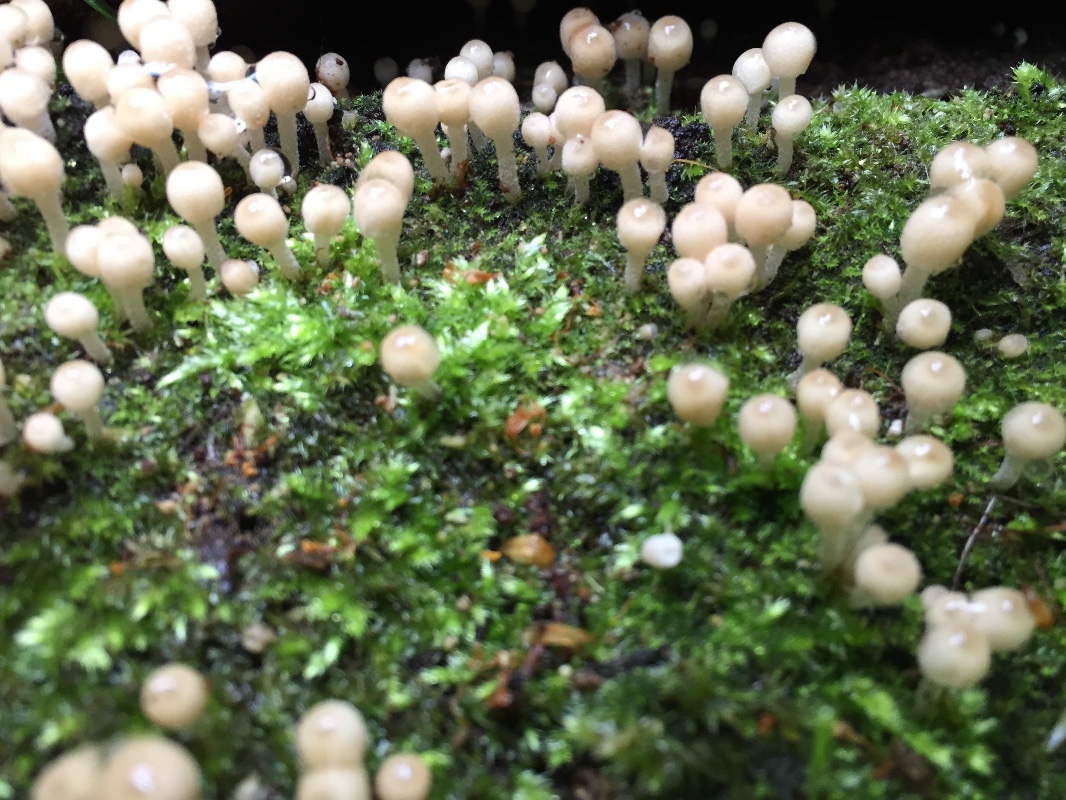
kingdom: Fungi
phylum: Basidiomycota
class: Agaricomycetes
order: Agaricales
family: Psathyrellaceae
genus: Coprinellus
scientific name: Coprinellus disseminatus
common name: bredsået blækhat
